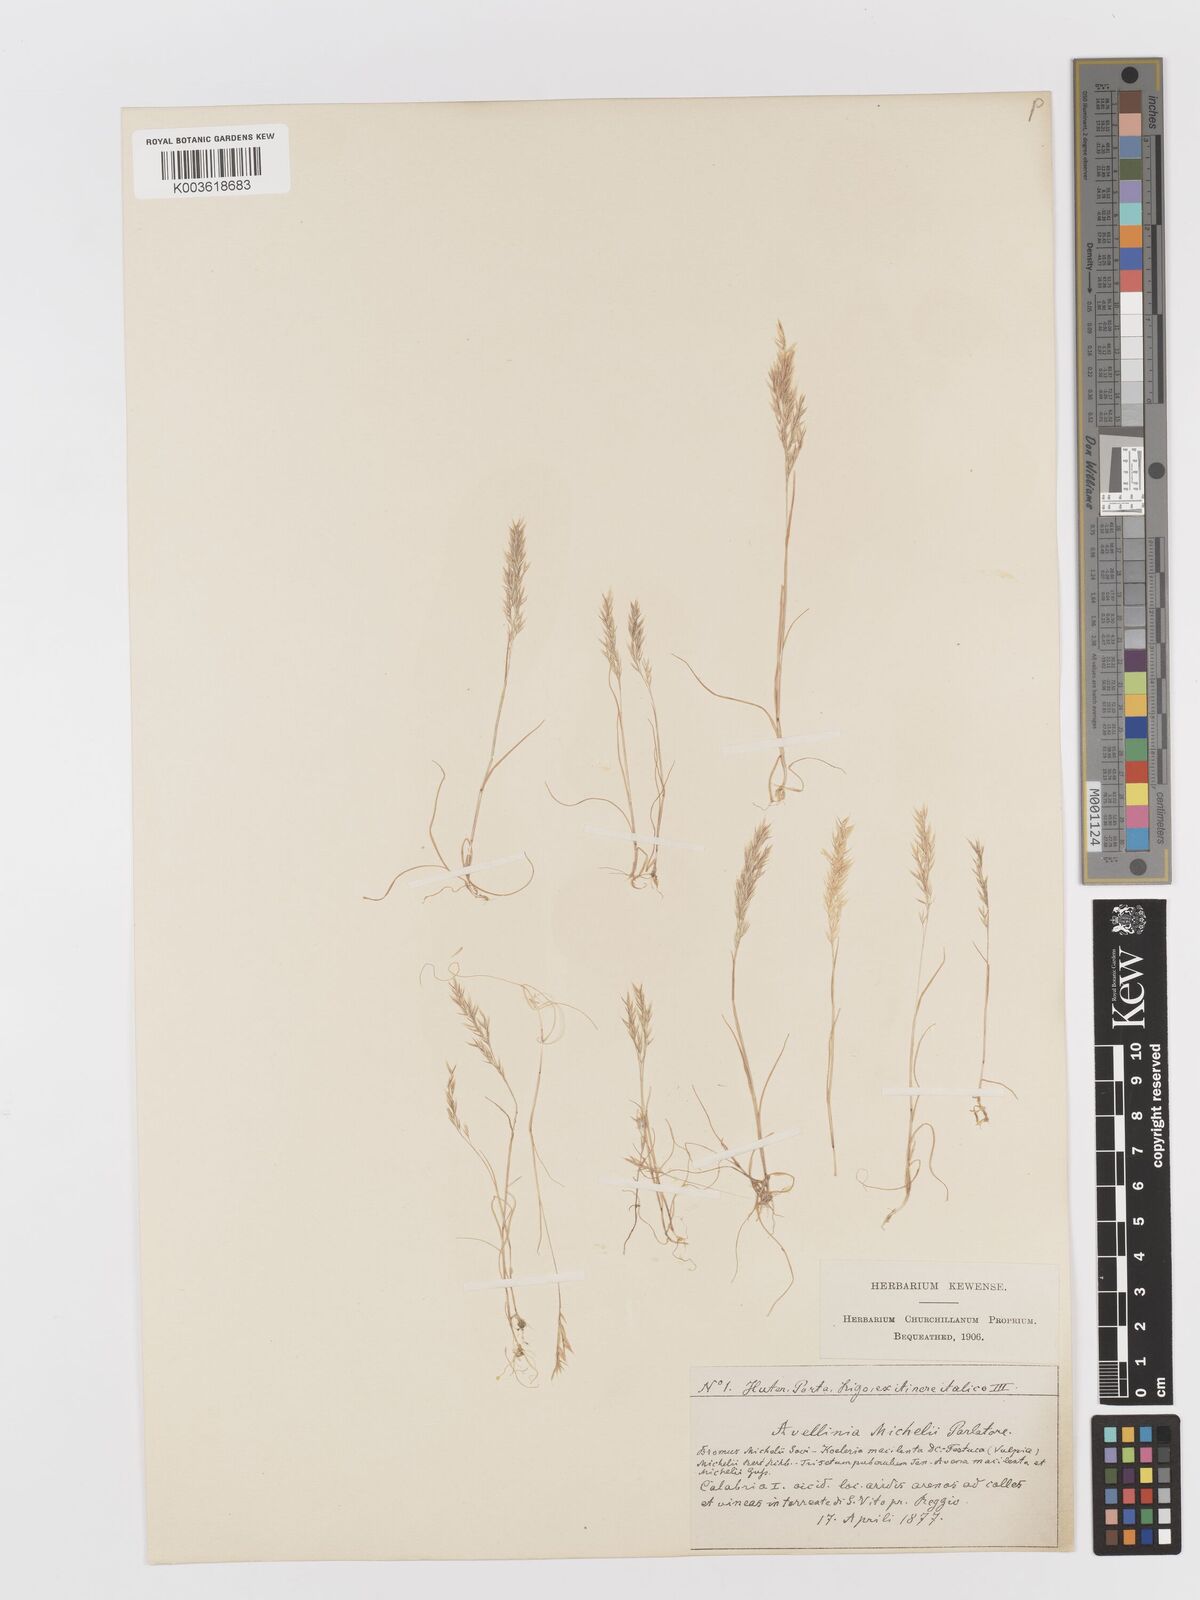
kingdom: Plantae
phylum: Tracheophyta
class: Liliopsida
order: Poales
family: Poaceae
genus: Avellinia
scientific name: Avellinia festucoides
